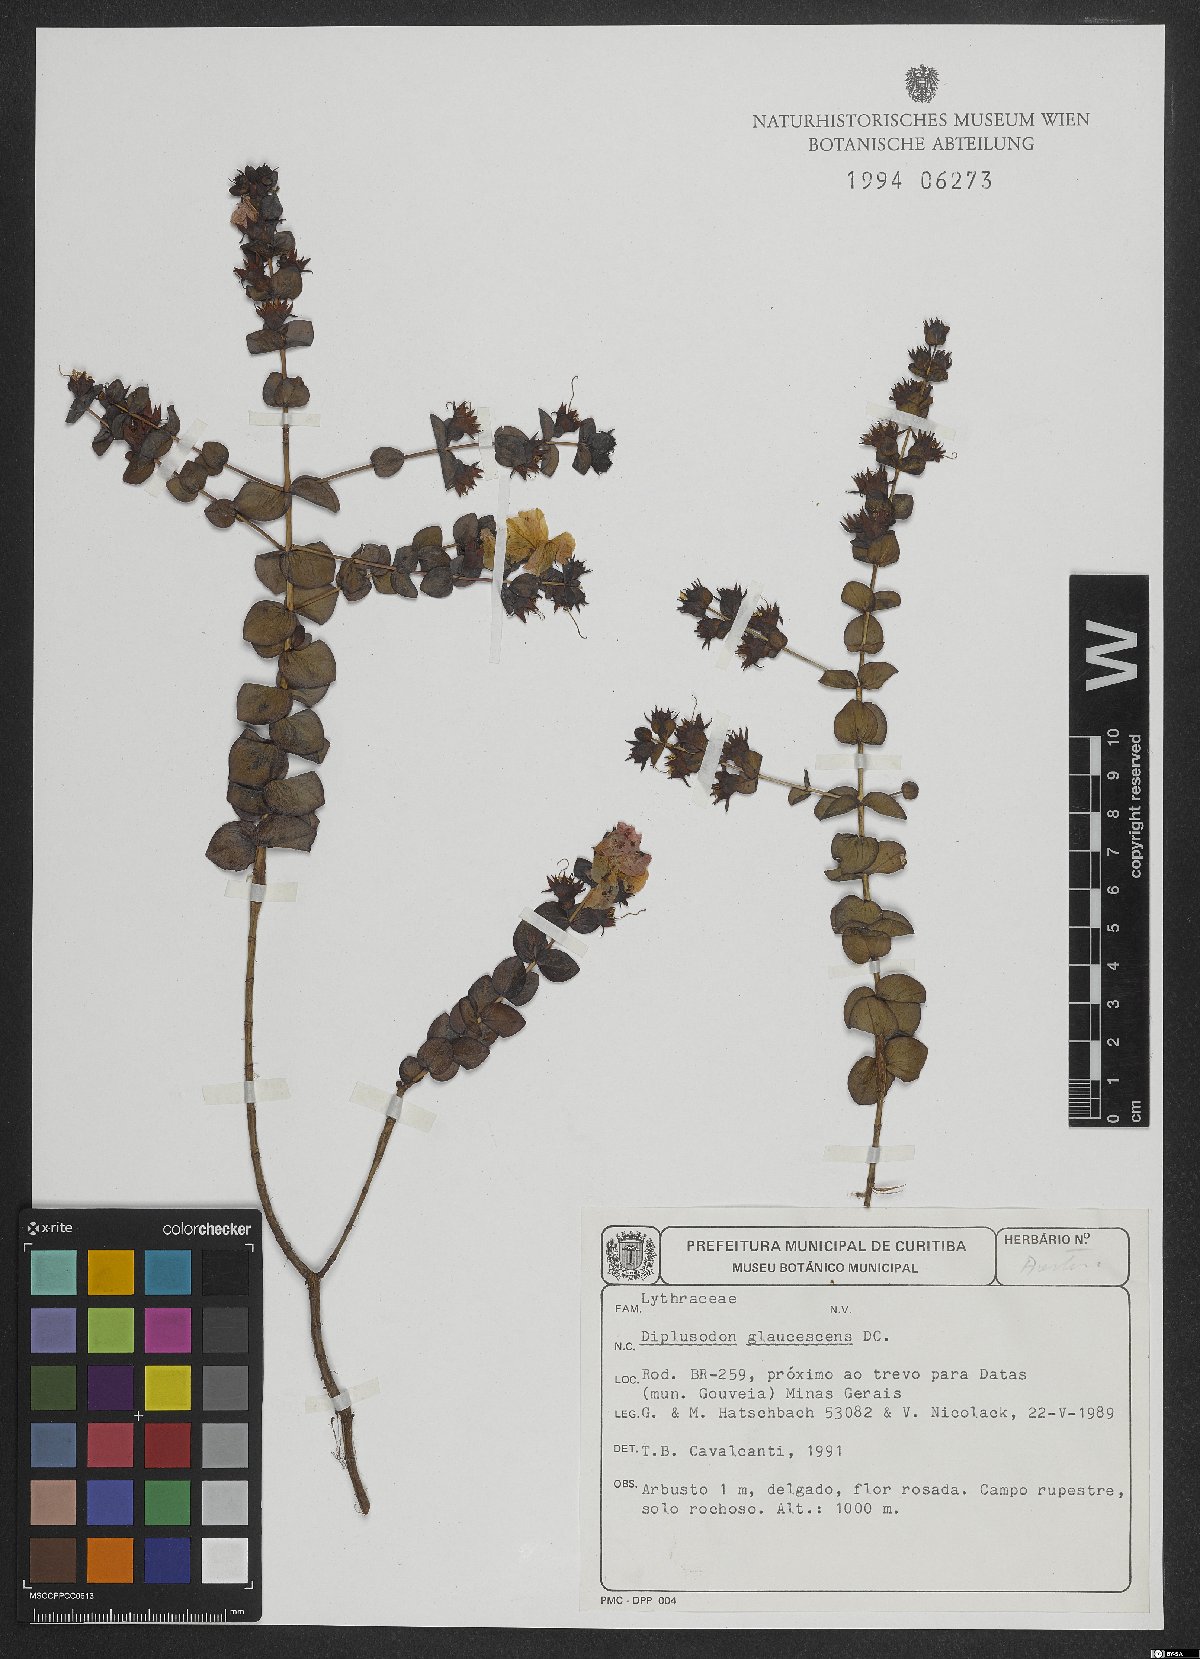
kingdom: Plantae
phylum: Tracheophyta
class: Magnoliopsida
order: Myrtales
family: Lythraceae
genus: Diplusodon
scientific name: Diplusodon glaucescens
